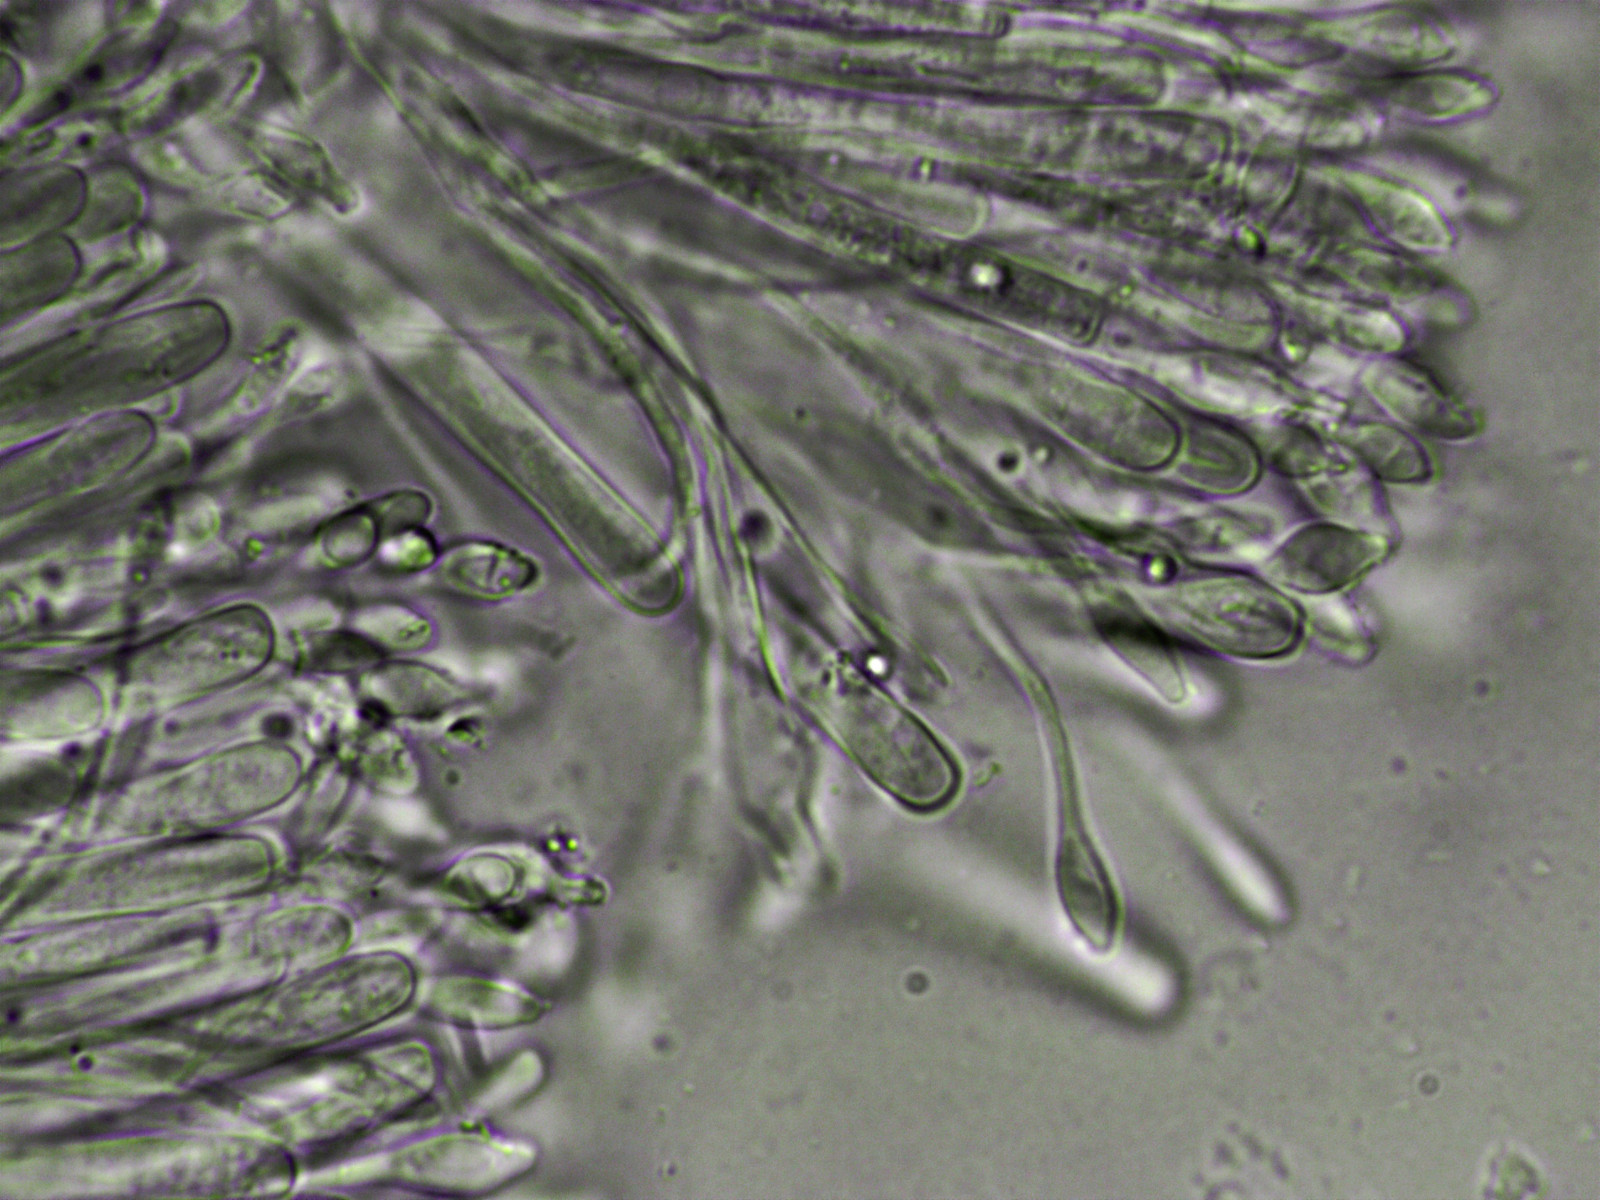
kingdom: Fungi
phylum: Ascomycota
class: Orbiliomycetes
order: Orbiliales
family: Orbiliaceae
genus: Orbilia
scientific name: Orbilia carpoboloides
